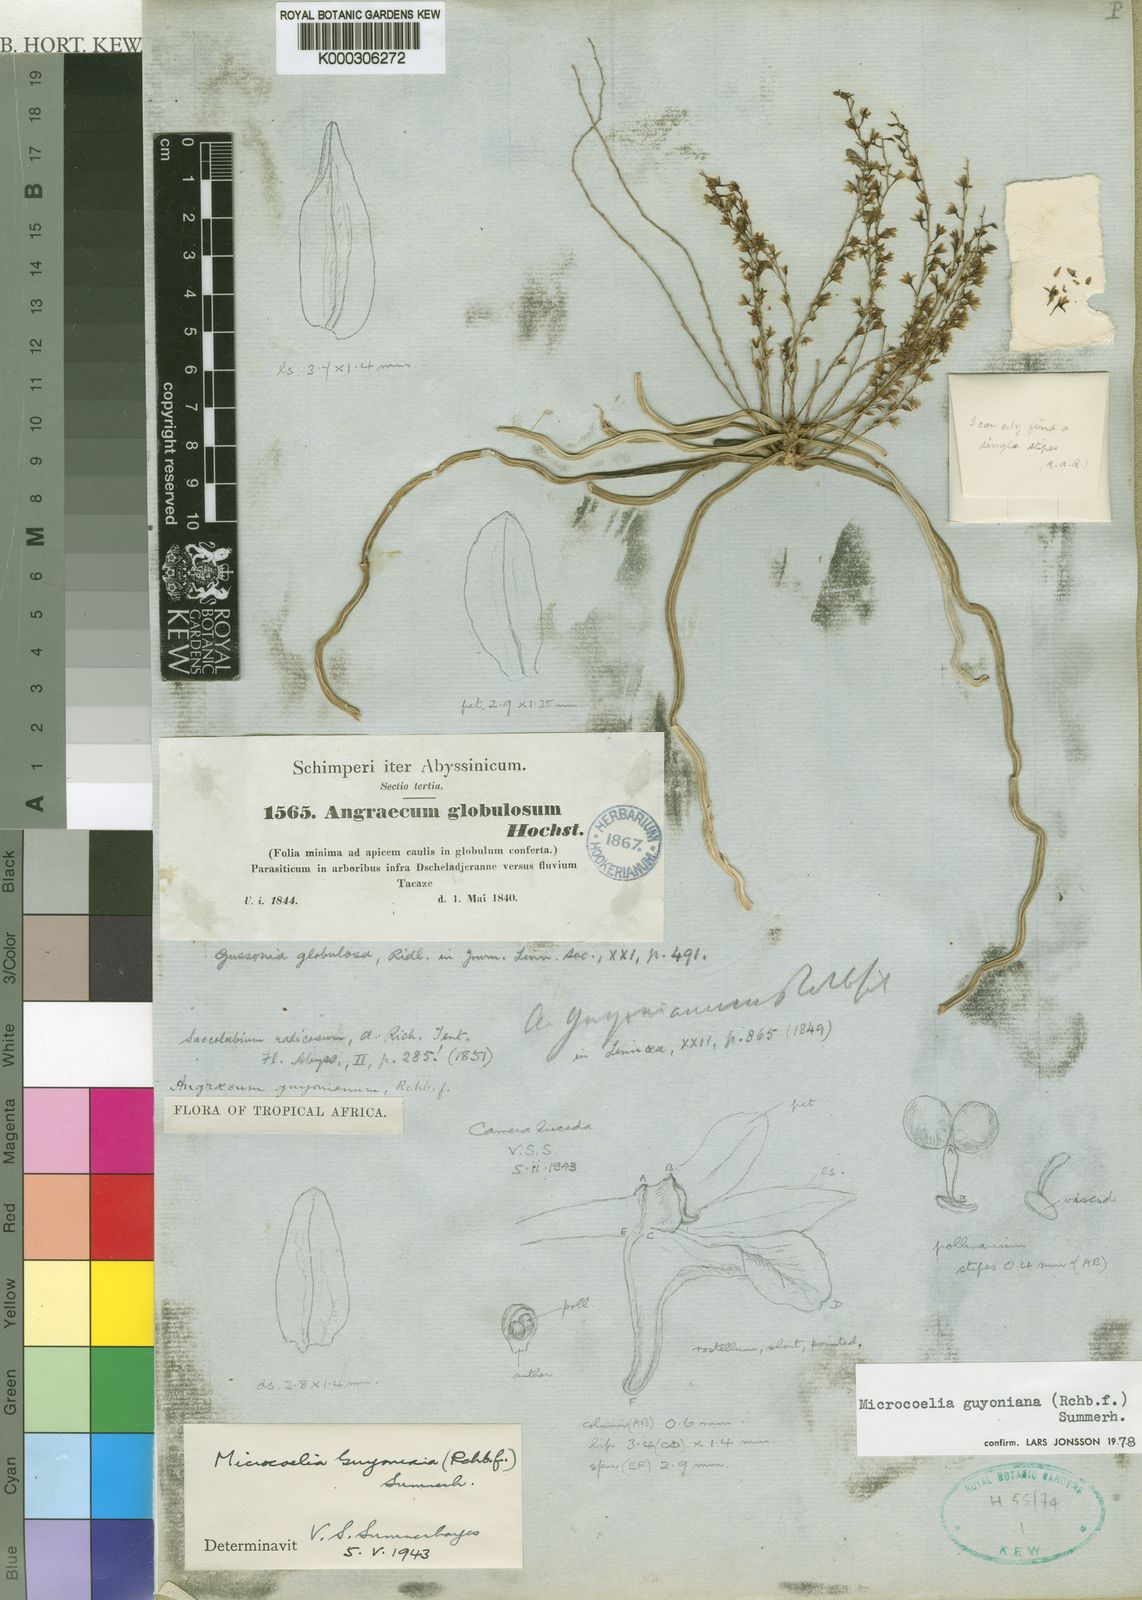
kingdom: Plantae
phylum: Tracheophyta
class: Liliopsida
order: Asparagales
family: Orchidaceae
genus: Microcoelia
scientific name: Microcoelia globulosa
